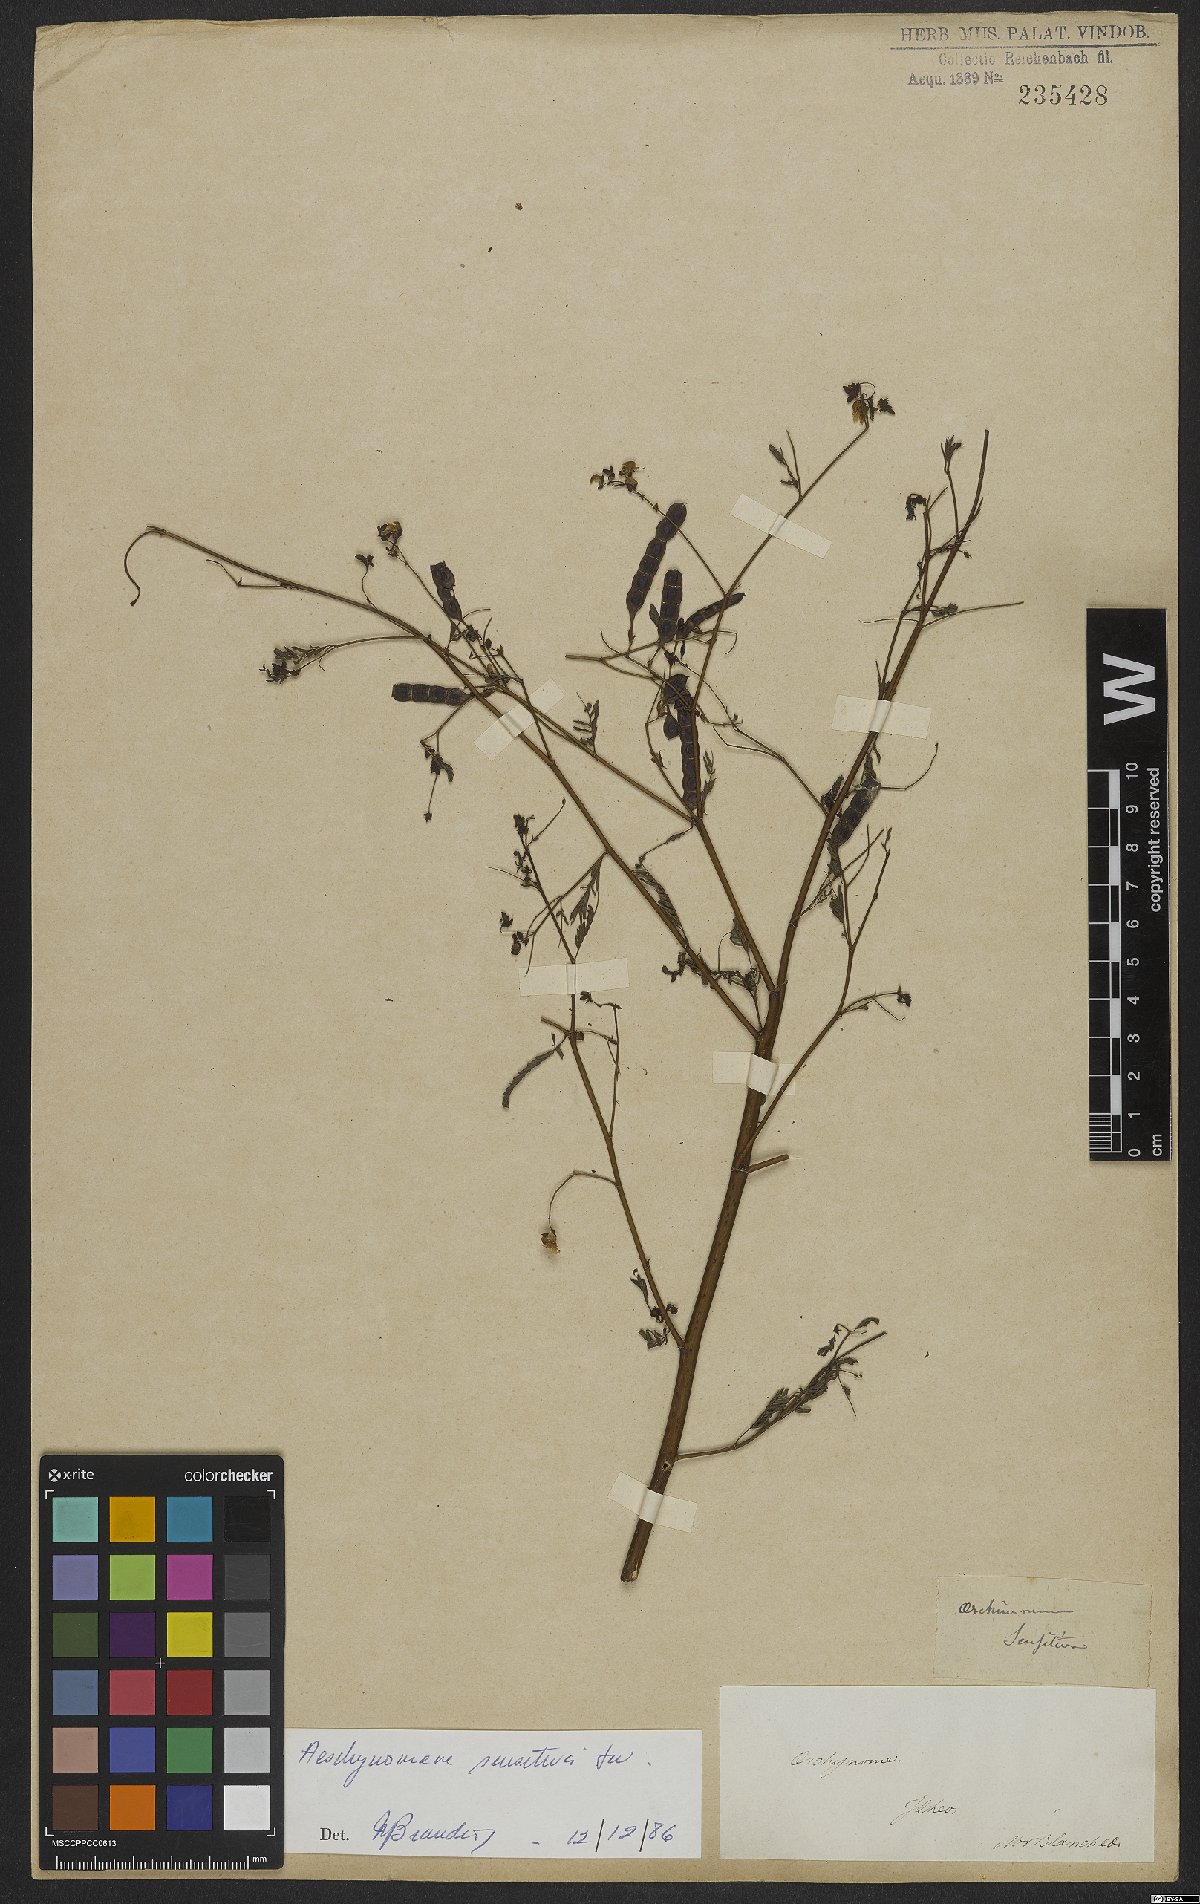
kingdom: Plantae
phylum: Tracheophyta
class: Magnoliopsida
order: Fabales
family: Fabaceae
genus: Aeschynomene
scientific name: Aeschynomene sensitiva
